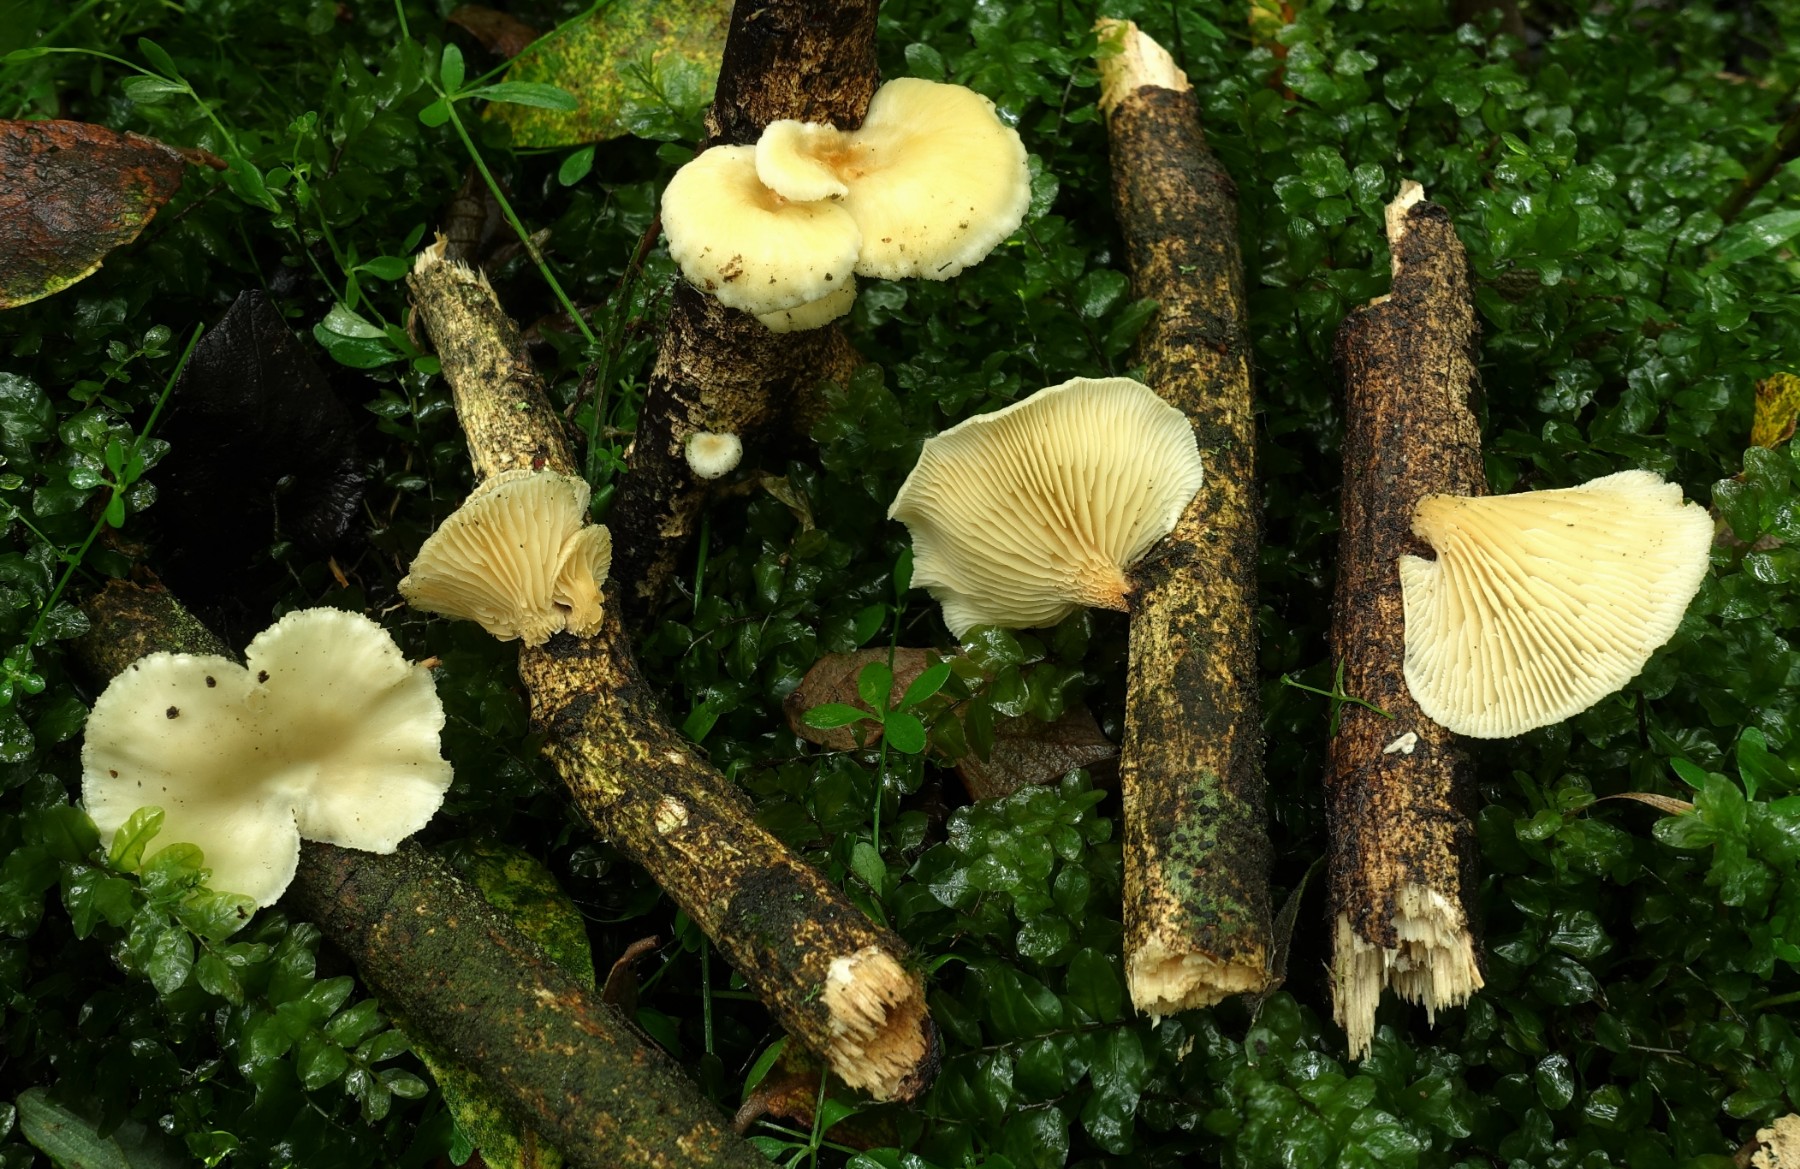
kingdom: Fungi
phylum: Basidiomycota
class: Agaricomycetes
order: Polyporales
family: Polyporaceae
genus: Neofavolus
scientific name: Neofavolus suavissimus
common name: anishat
